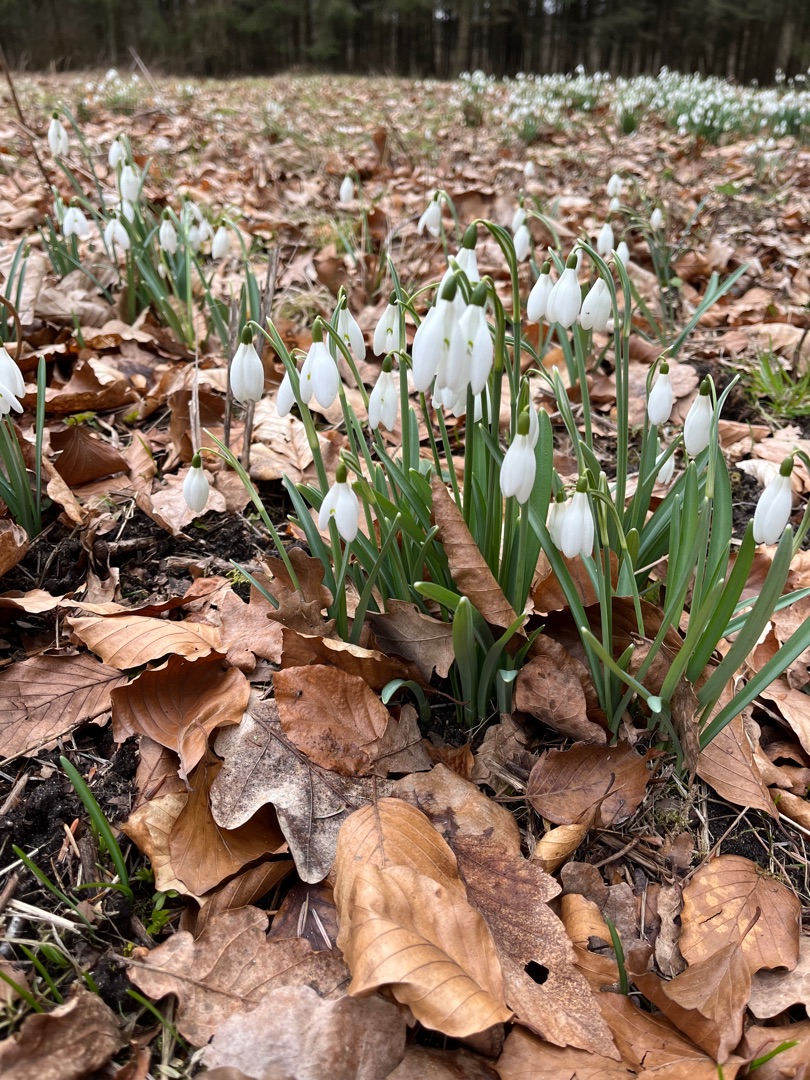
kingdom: Plantae
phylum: Tracheophyta
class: Liliopsida
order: Asparagales
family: Amaryllidaceae
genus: Galanthus
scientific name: Galanthus nivalis
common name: Vintergæk
